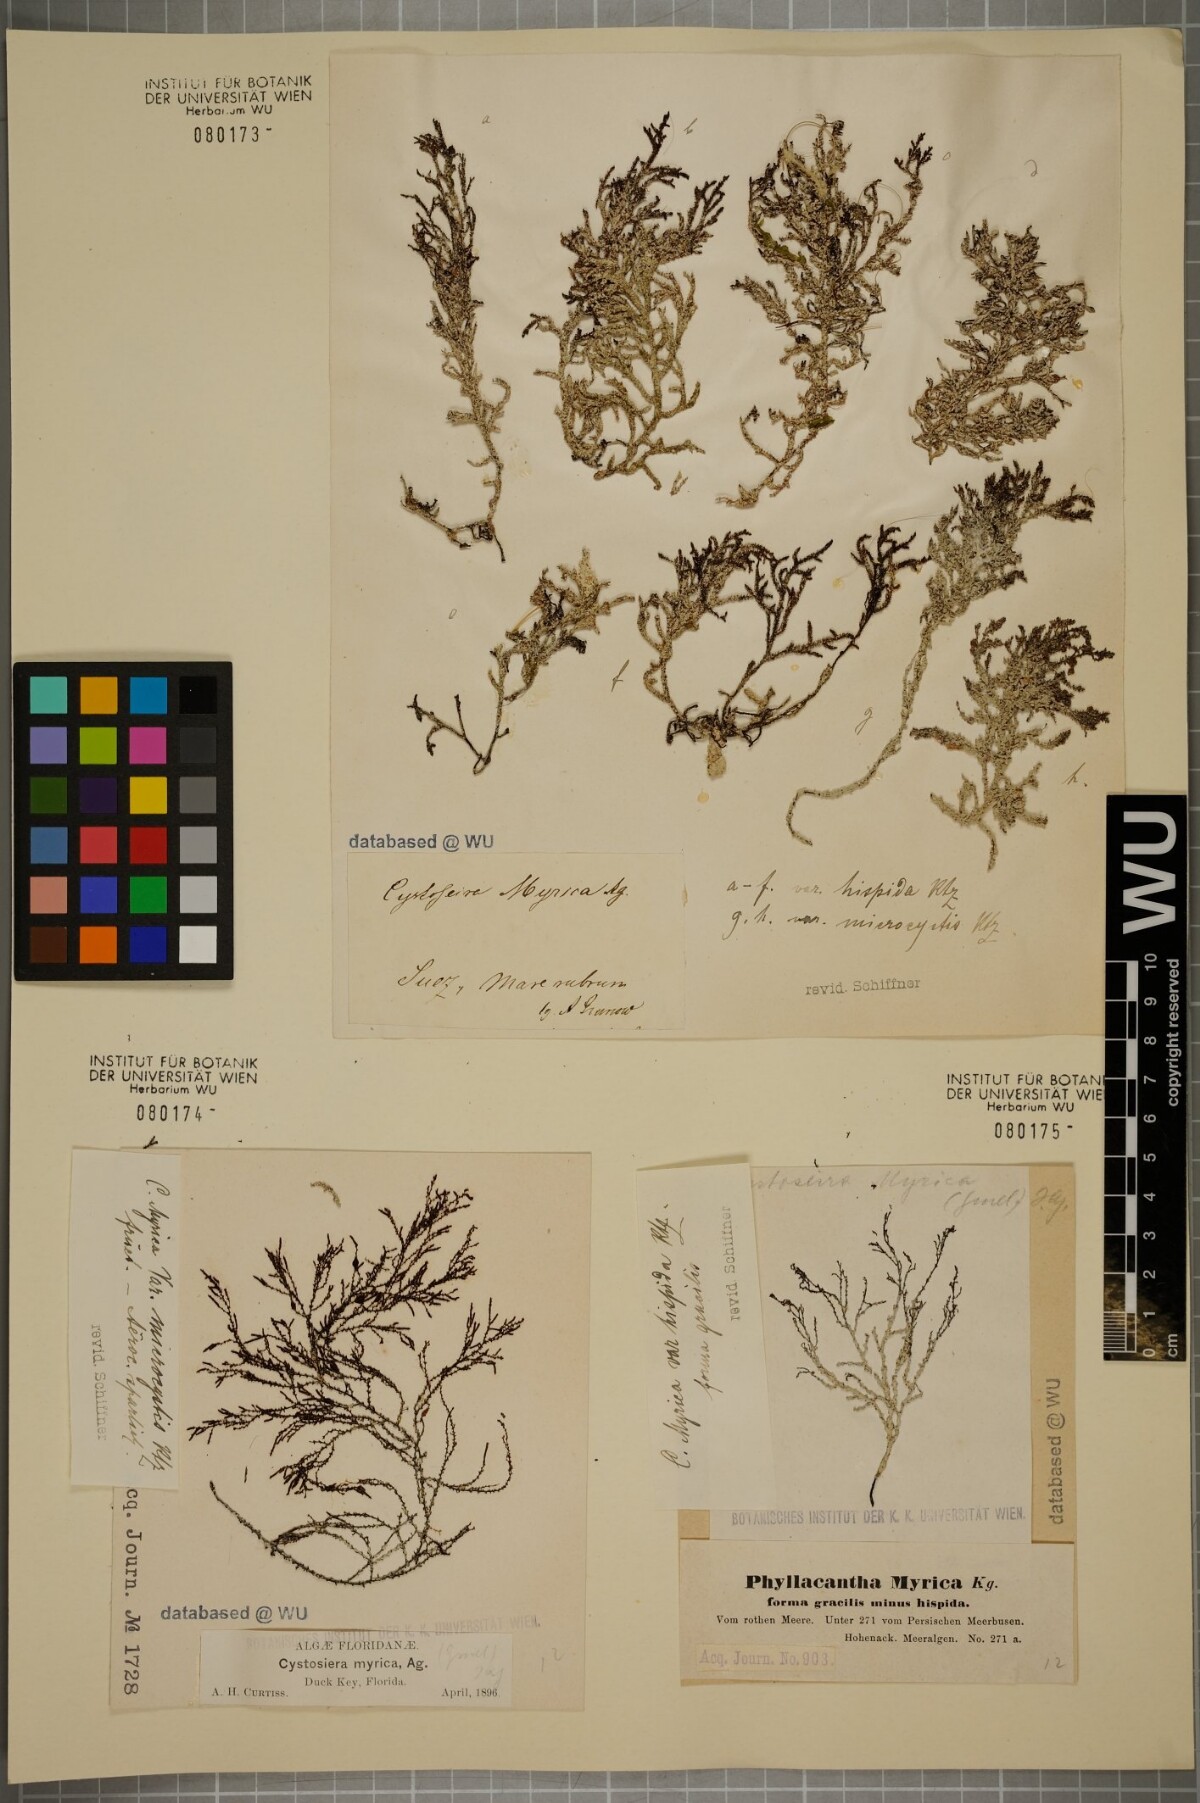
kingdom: Chromista
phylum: Ochrophyta
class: Phaeophyceae
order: Fucales
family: Sargassaceae
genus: Polycladia
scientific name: Polycladia myrica
